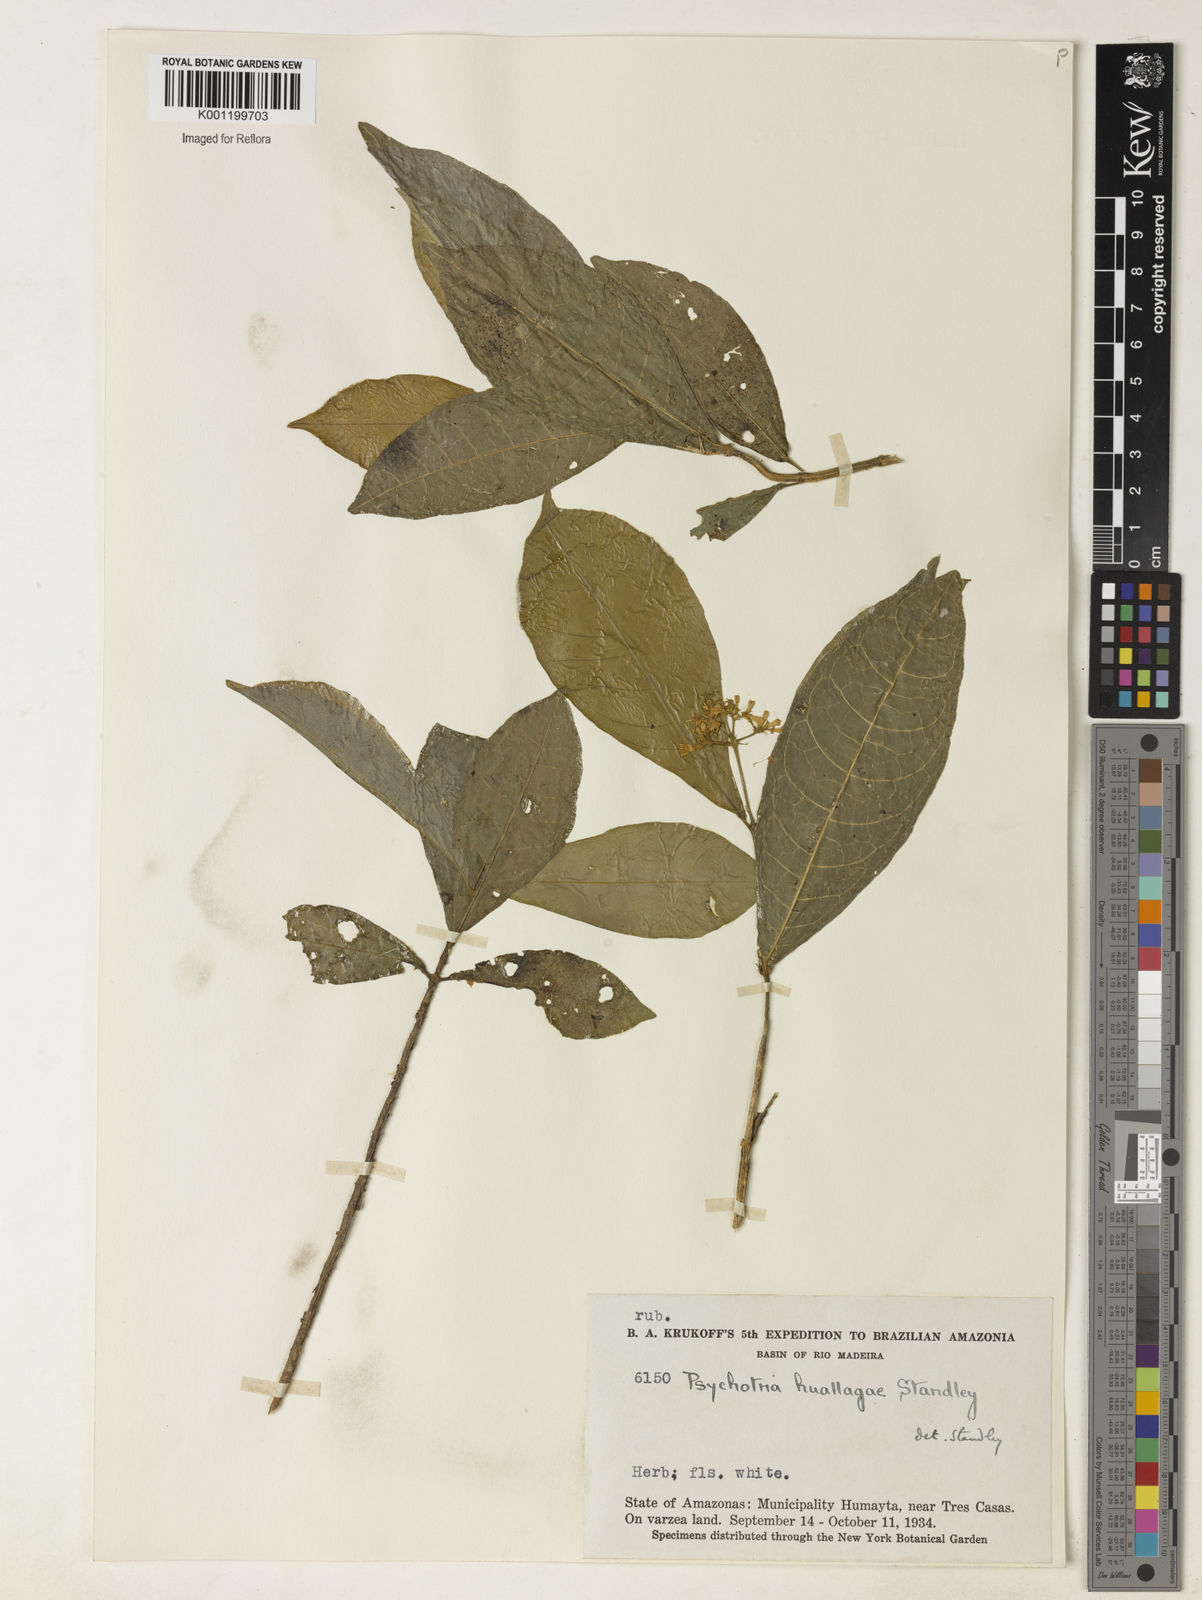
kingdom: Plantae
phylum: Tracheophyta
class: Magnoliopsida
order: Gentianales
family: Rubiaceae
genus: Eumachia
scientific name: Eumachia huallagae
